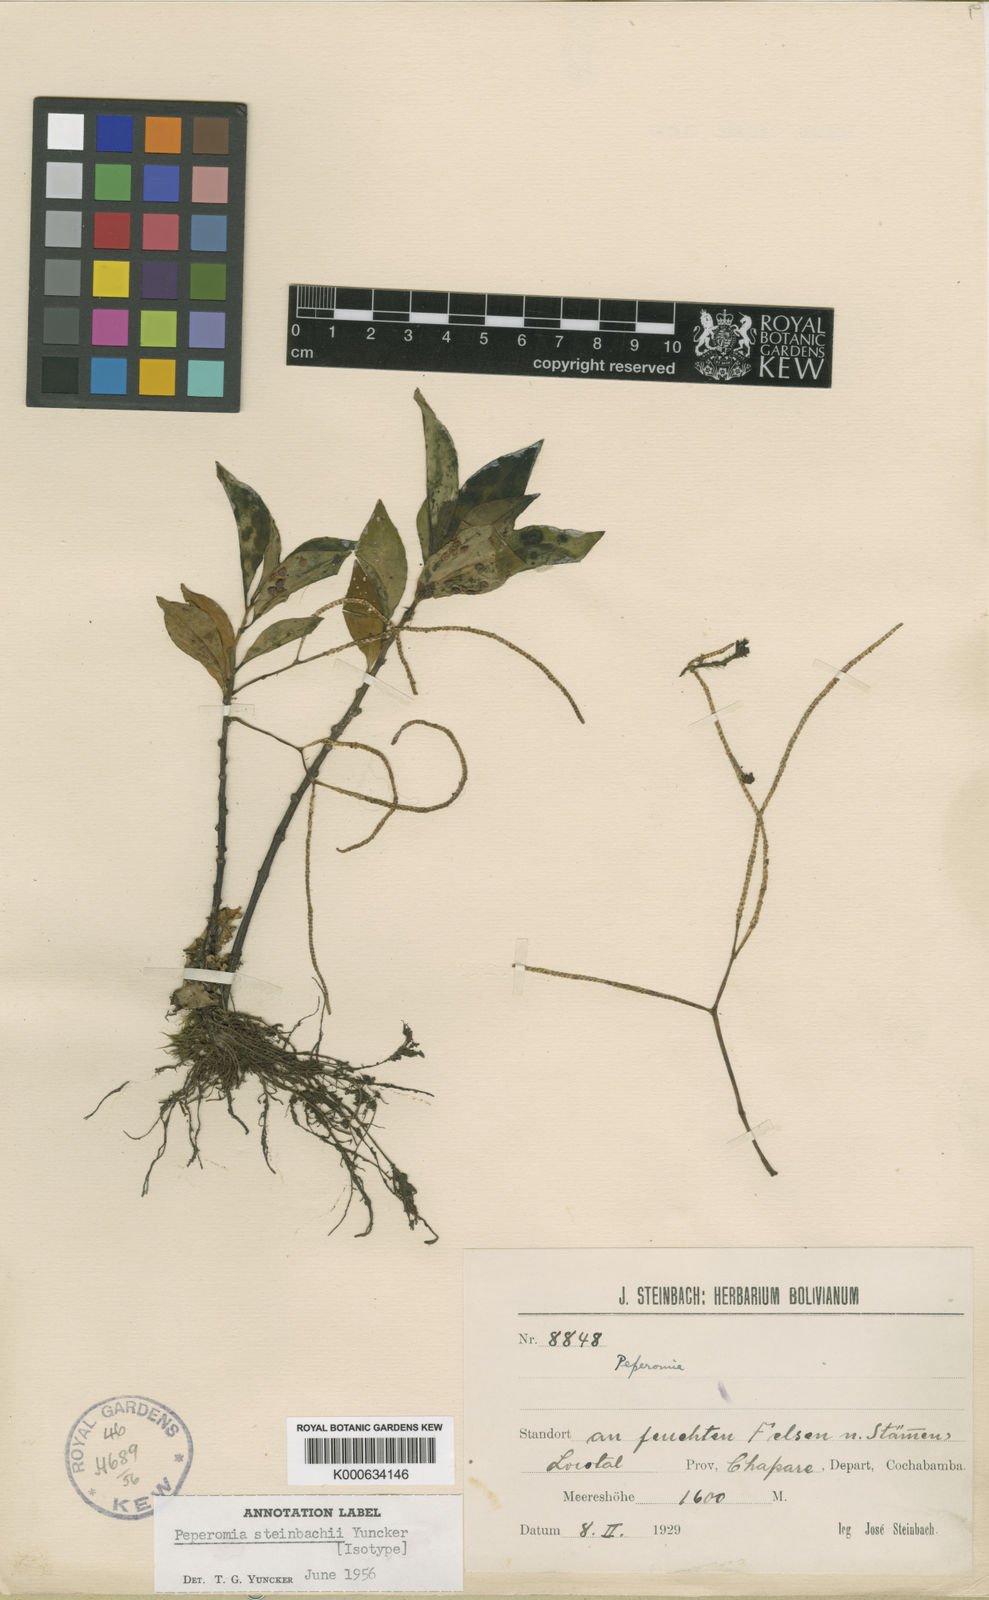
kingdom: Plantae
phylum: Tracheophyta
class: Magnoliopsida
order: Piperales
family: Piperaceae
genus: Peperomia
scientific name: Peperomia steinbachii
